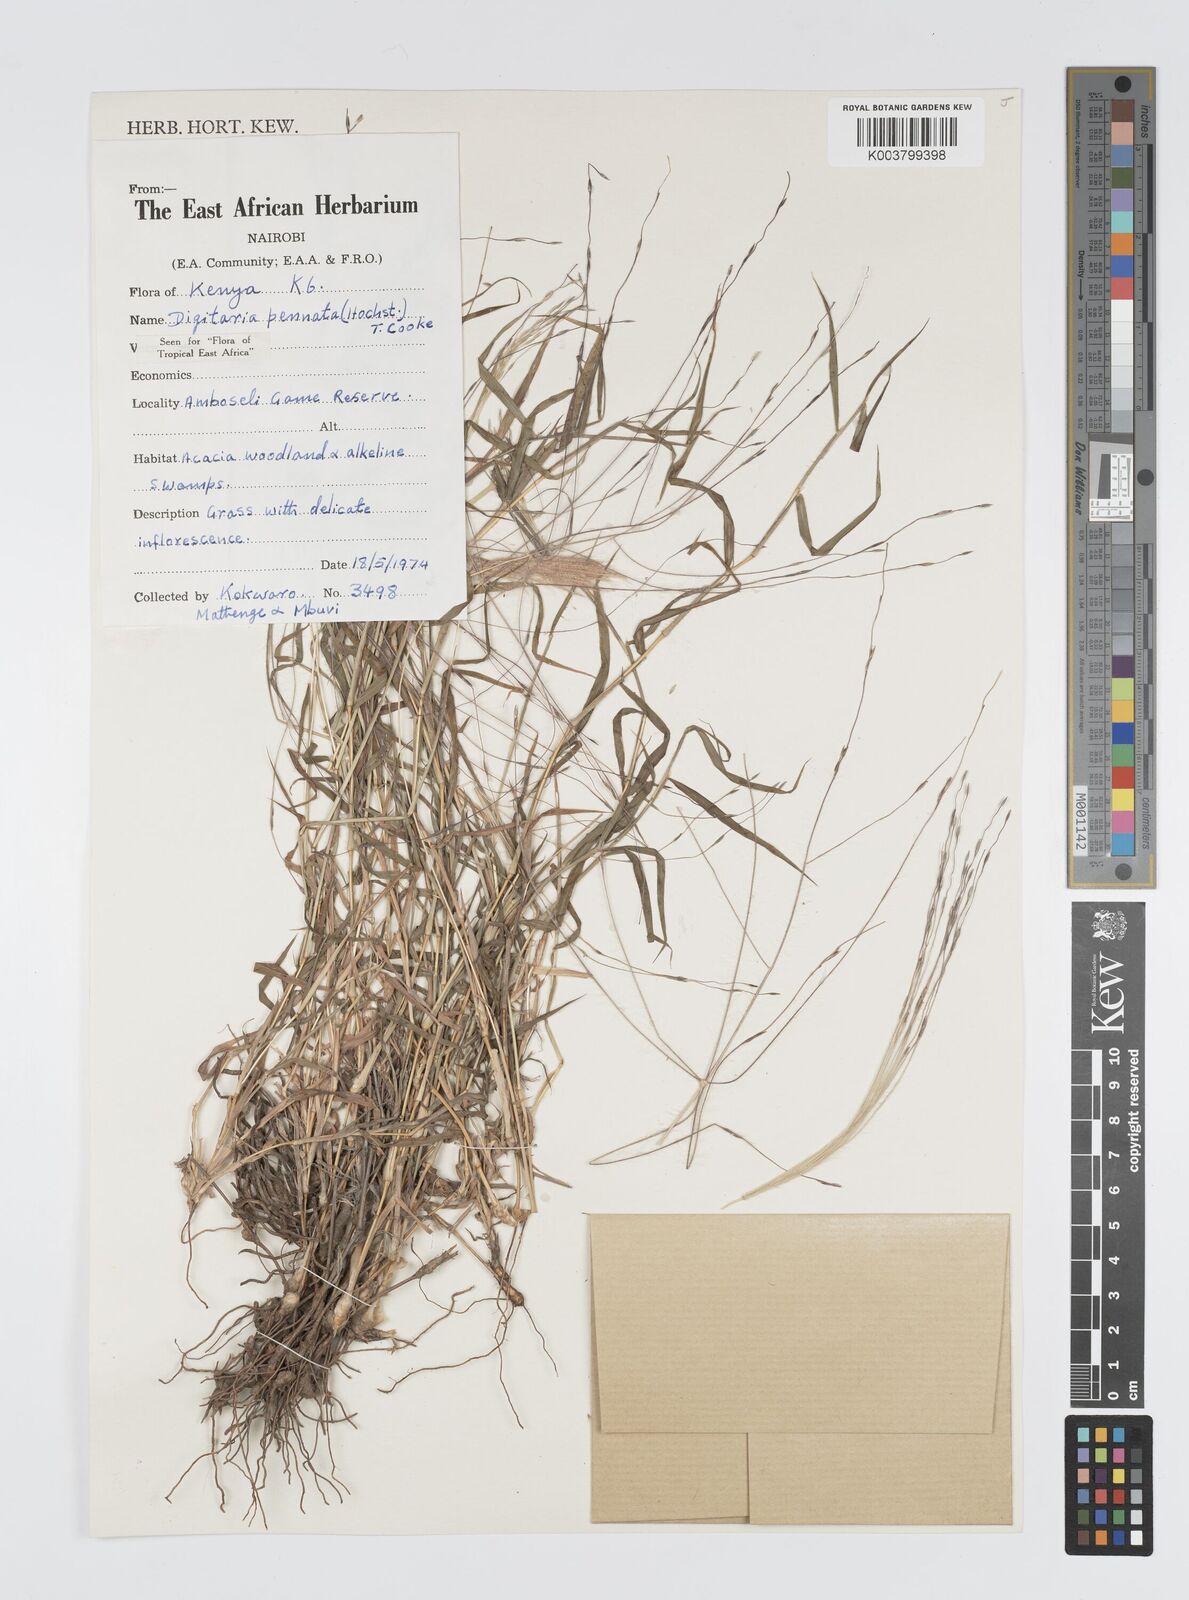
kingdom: Plantae
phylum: Tracheophyta
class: Liliopsida
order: Poales
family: Poaceae
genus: Digitaria
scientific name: Digitaria
